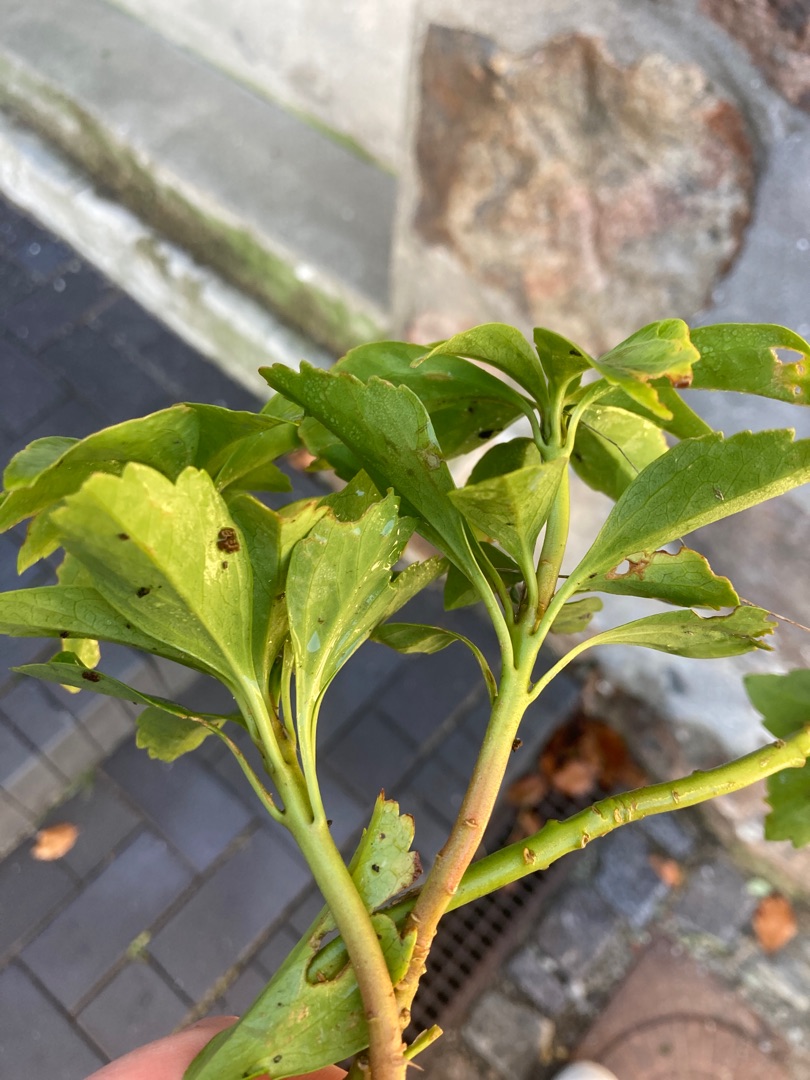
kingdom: Plantae
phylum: Tracheophyta
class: Magnoliopsida
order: Buxales
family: Buxaceae
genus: Pachysandra
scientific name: Pachysandra terminalis
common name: Vinterglans
